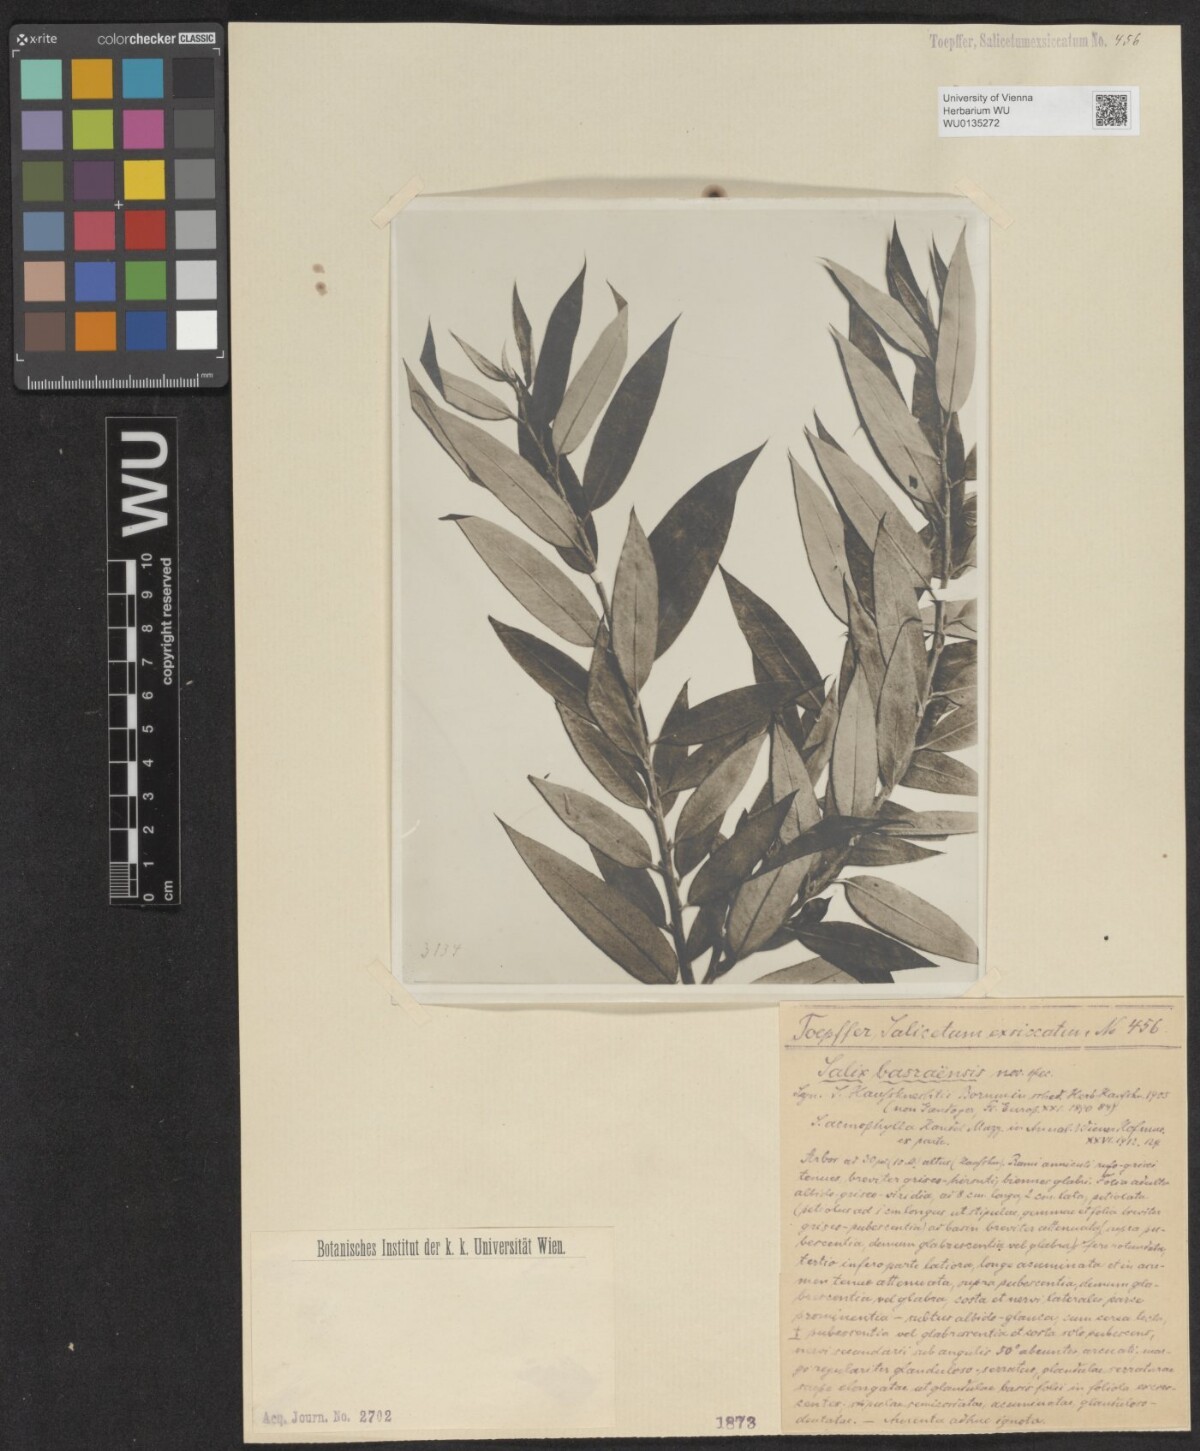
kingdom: Plantae
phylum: Tracheophyta
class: Magnoliopsida
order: Malpighiales
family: Salicaceae
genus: Salix
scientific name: Salix acmophylla
